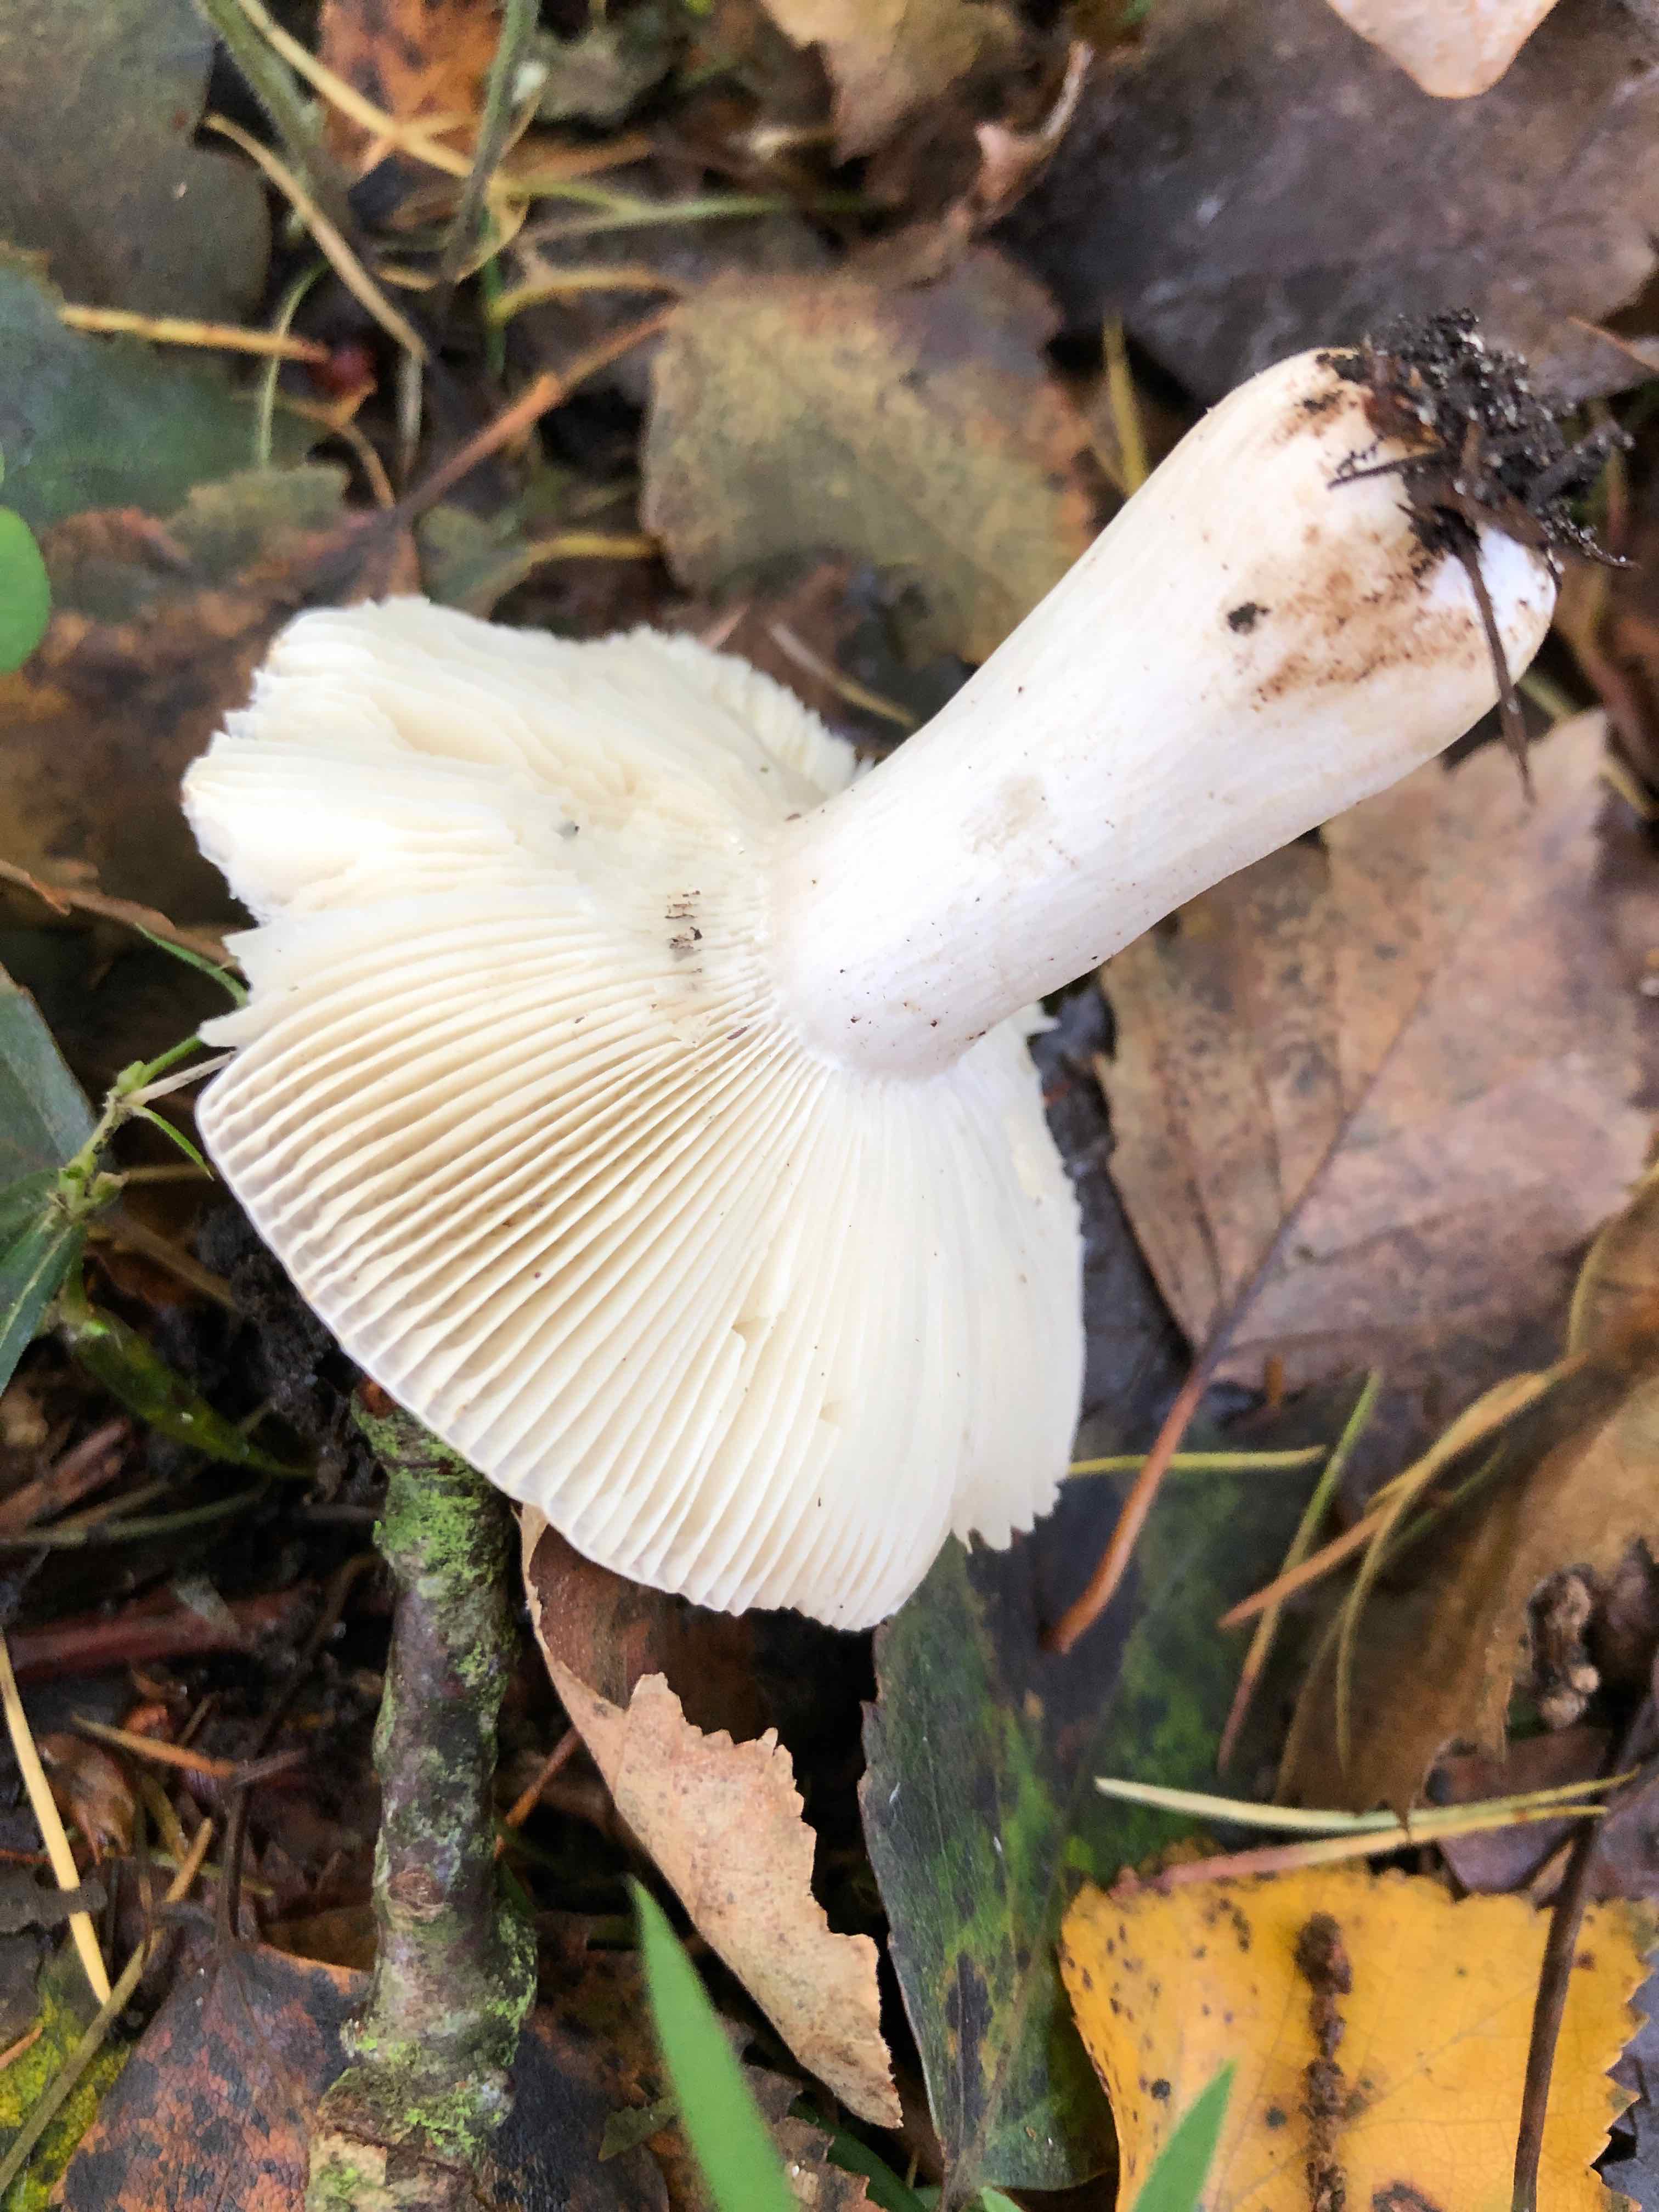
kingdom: Fungi
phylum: Basidiomycota
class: Agaricomycetes
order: Russulales
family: Russulaceae
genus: Russula
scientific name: Russula
